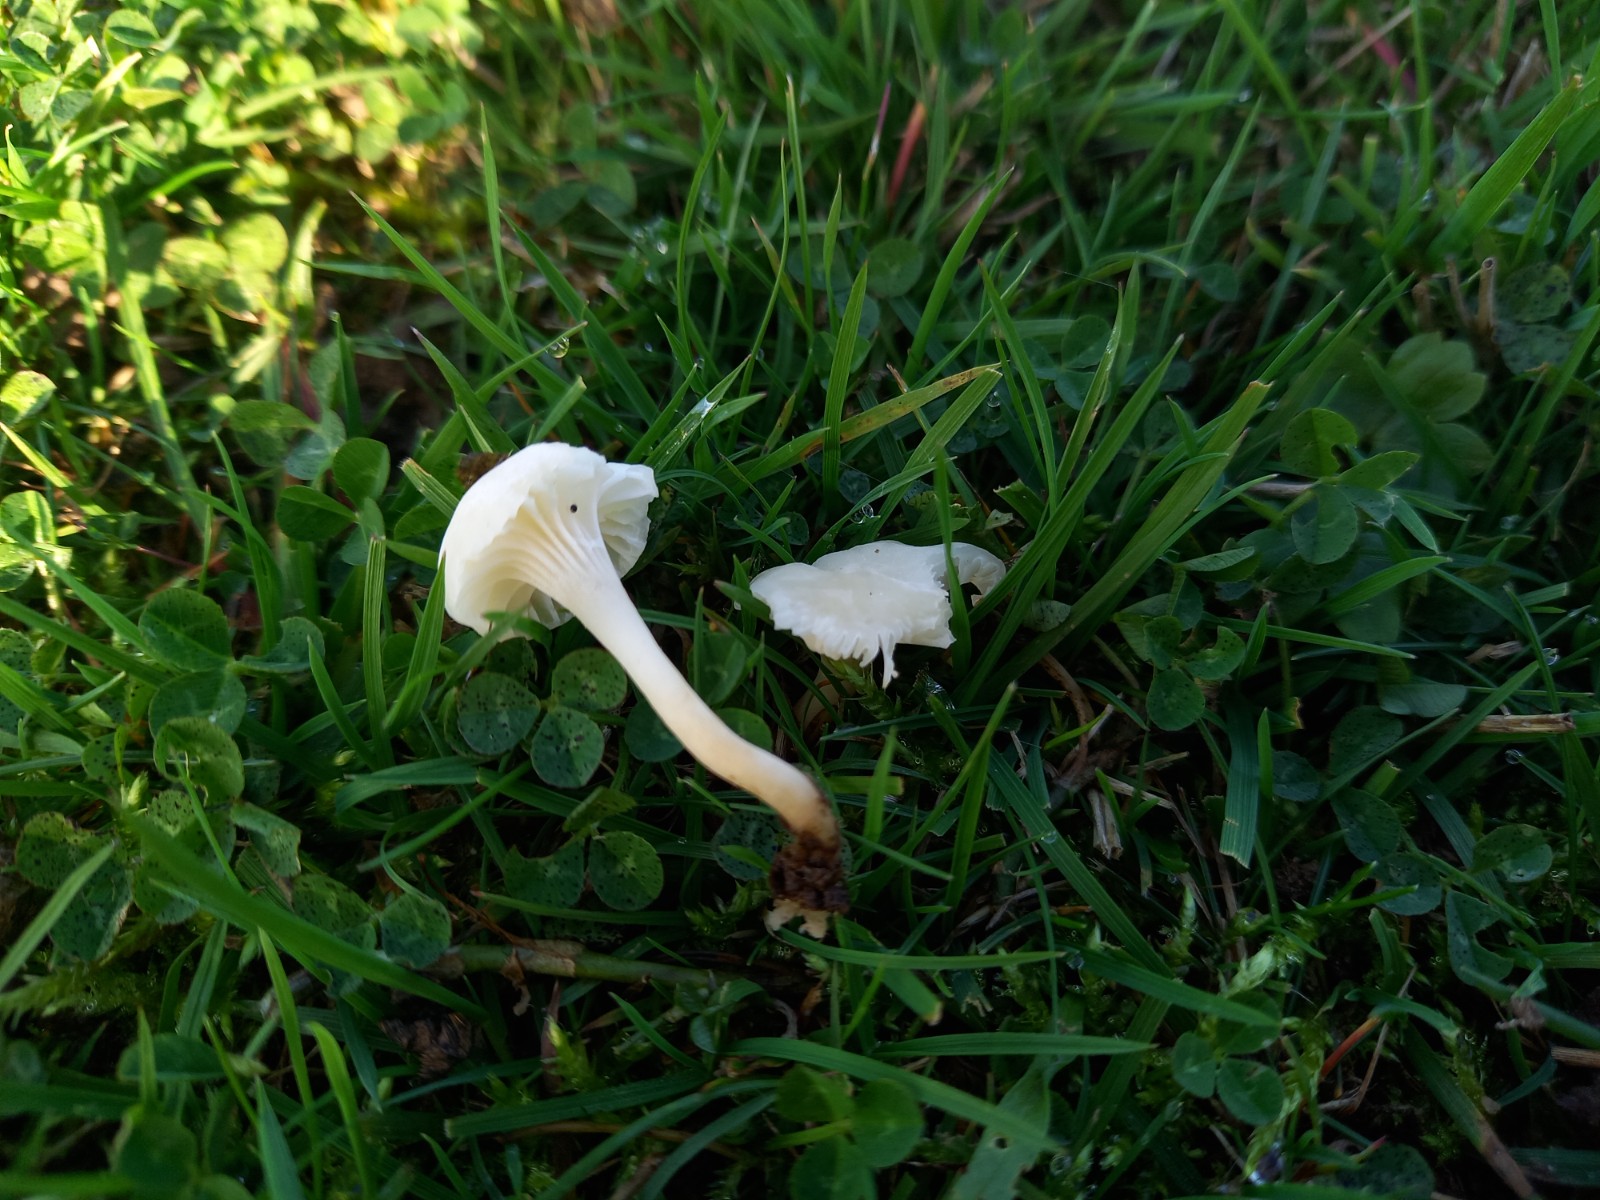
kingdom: Fungi
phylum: Basidiomycota
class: Agaricomycetes
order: Agaricales
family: Hygrophoraceae
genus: Cuphophyllus
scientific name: Cuphophyllus virgineus
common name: snehvid vokshat
